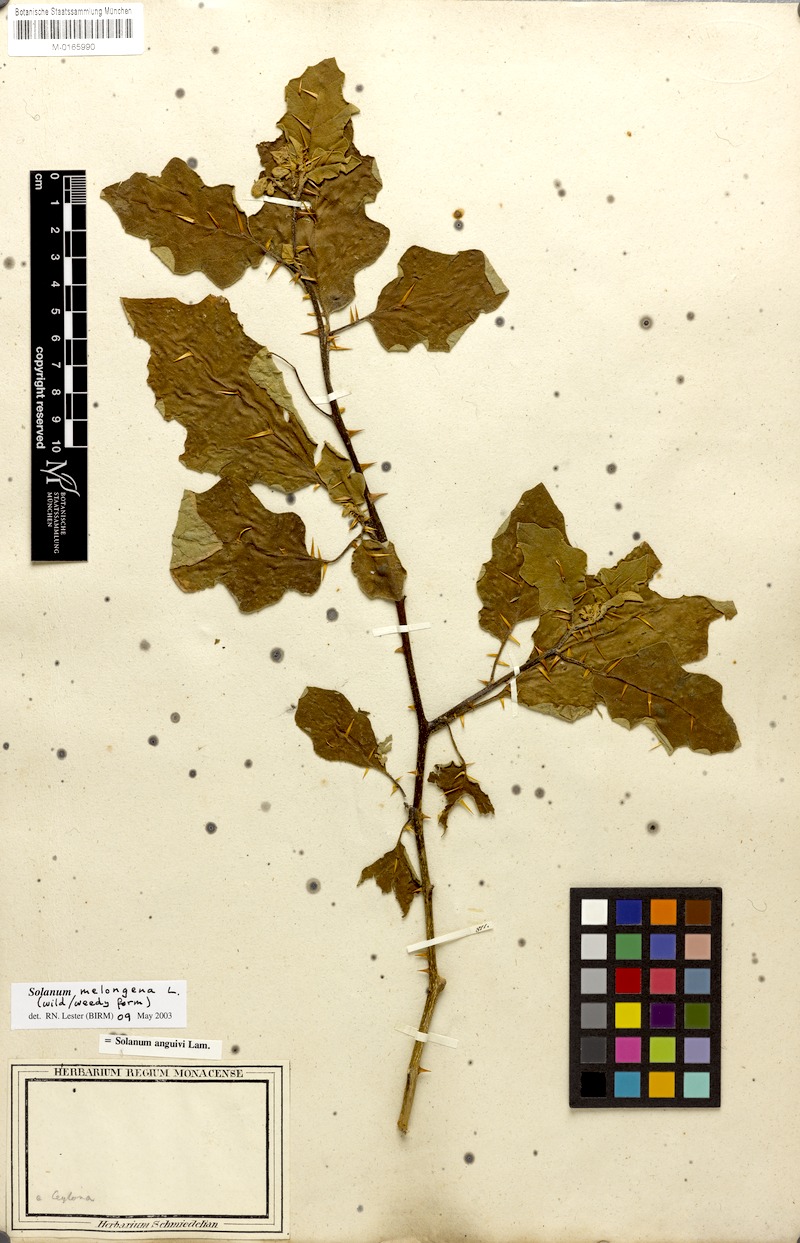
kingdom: Plantae
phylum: Tracheophyta
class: Magnoliopsida
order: Solanales
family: Solanaceae
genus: Solanum
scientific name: Solanum melongena
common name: Eggplant
